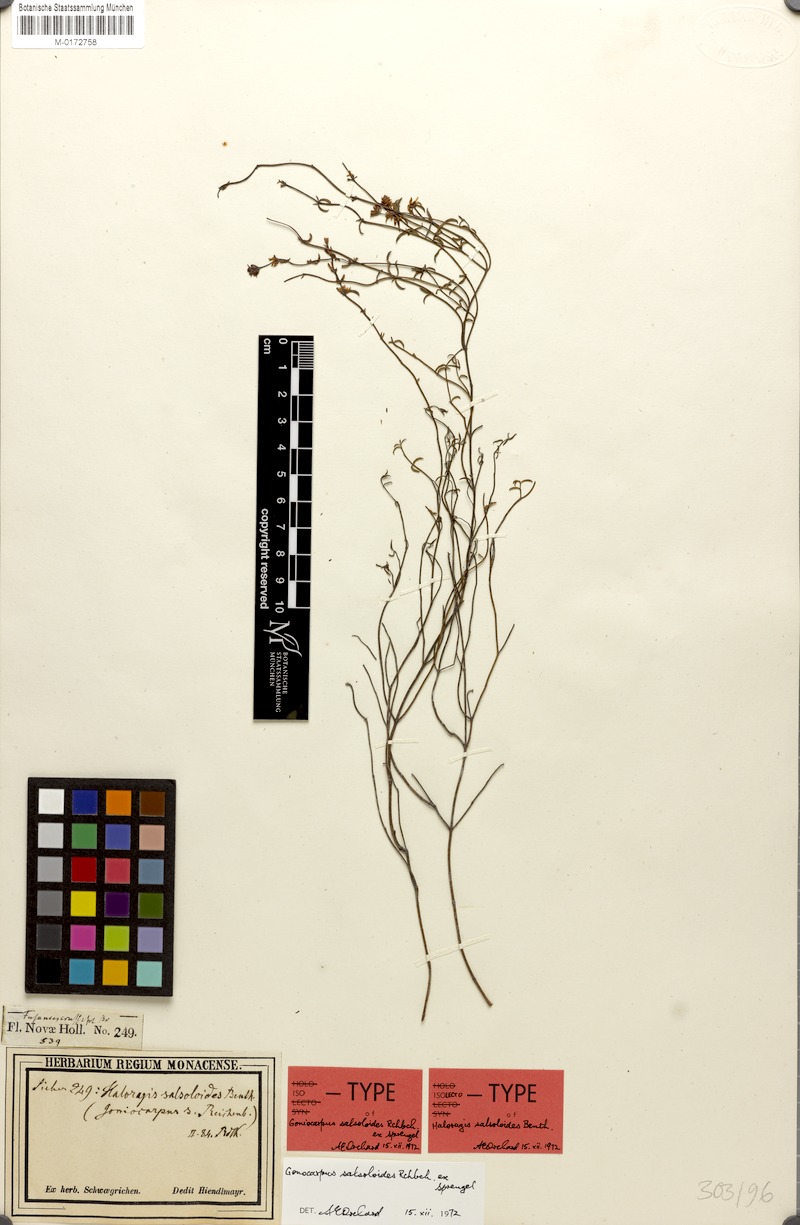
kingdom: Plantae
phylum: Tracheophyta
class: Magnoliopsida
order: Saxifragales
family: Haloragaceae
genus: Gonocarpus
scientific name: Gonocarpus salsoloides
